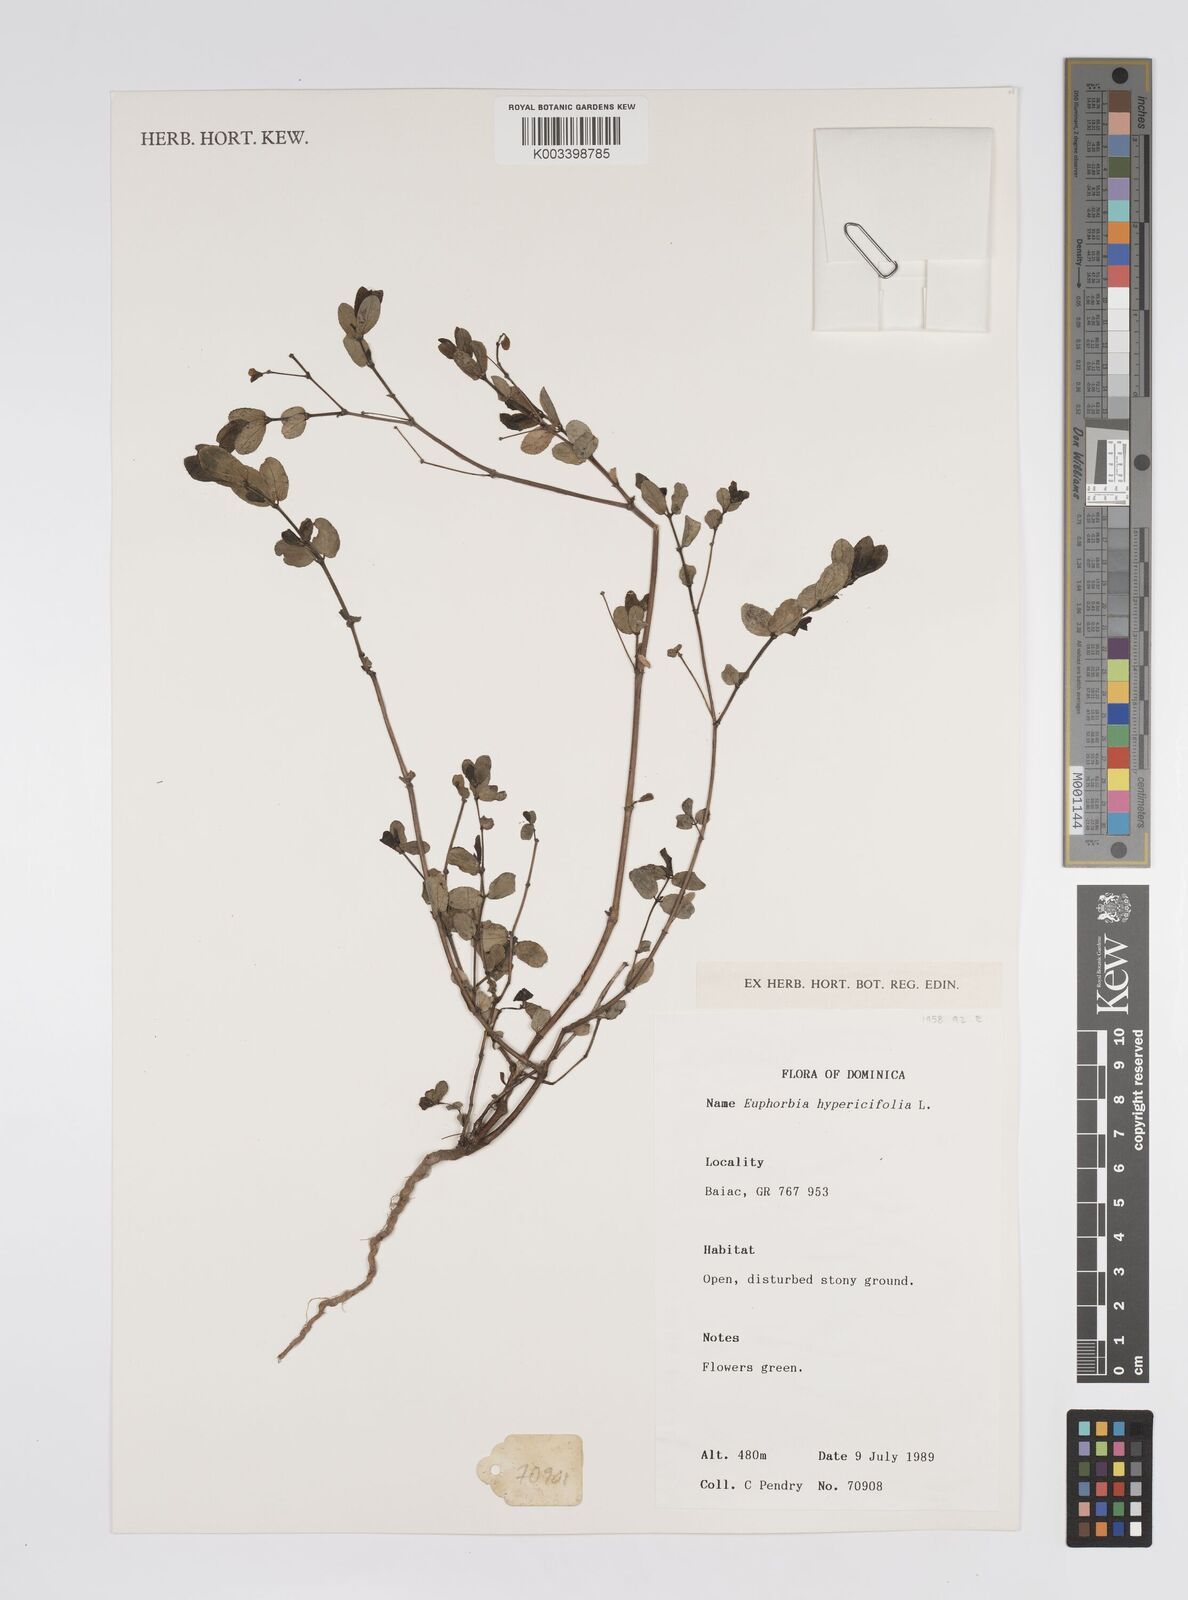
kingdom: Plantae
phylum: Tracheophyta
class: Magnoliopsida
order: Malpighiales
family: Euphorbiaceae
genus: Euphorbia
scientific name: Euphorbia hypericifolia
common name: Graceful sandmat
